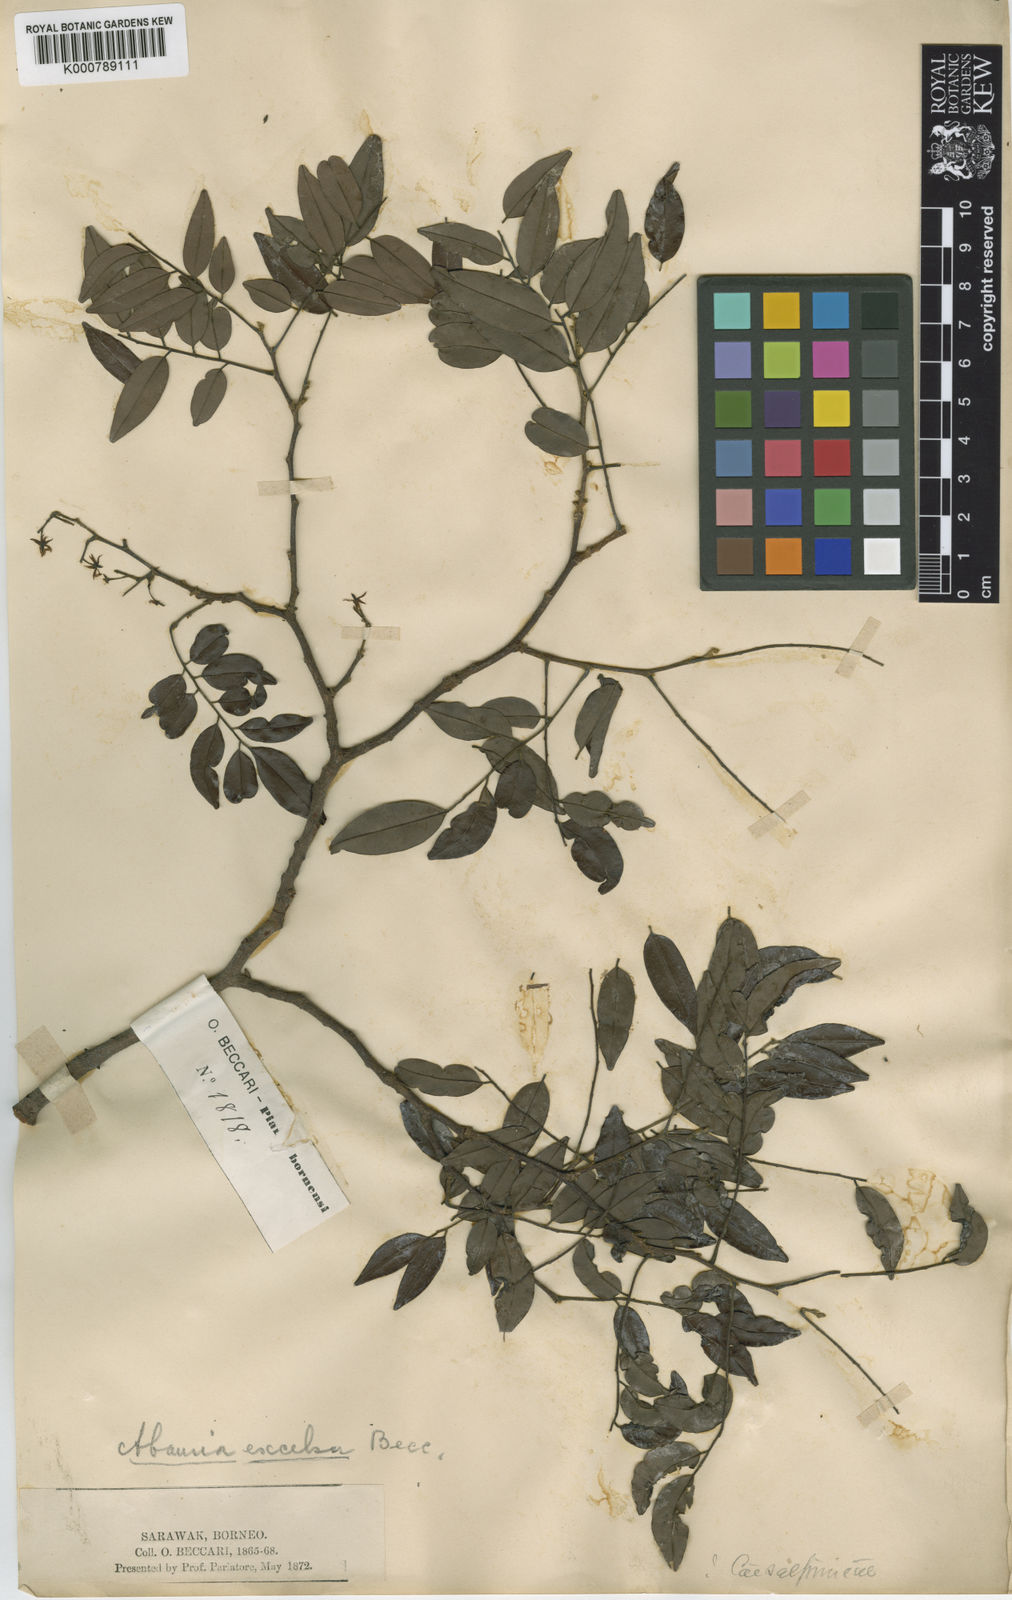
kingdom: Plantae
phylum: Tracheophyta
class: Magnoliopsida
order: Fabales
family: Fabaceae
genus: Koompassia
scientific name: Koompassia excelsa
